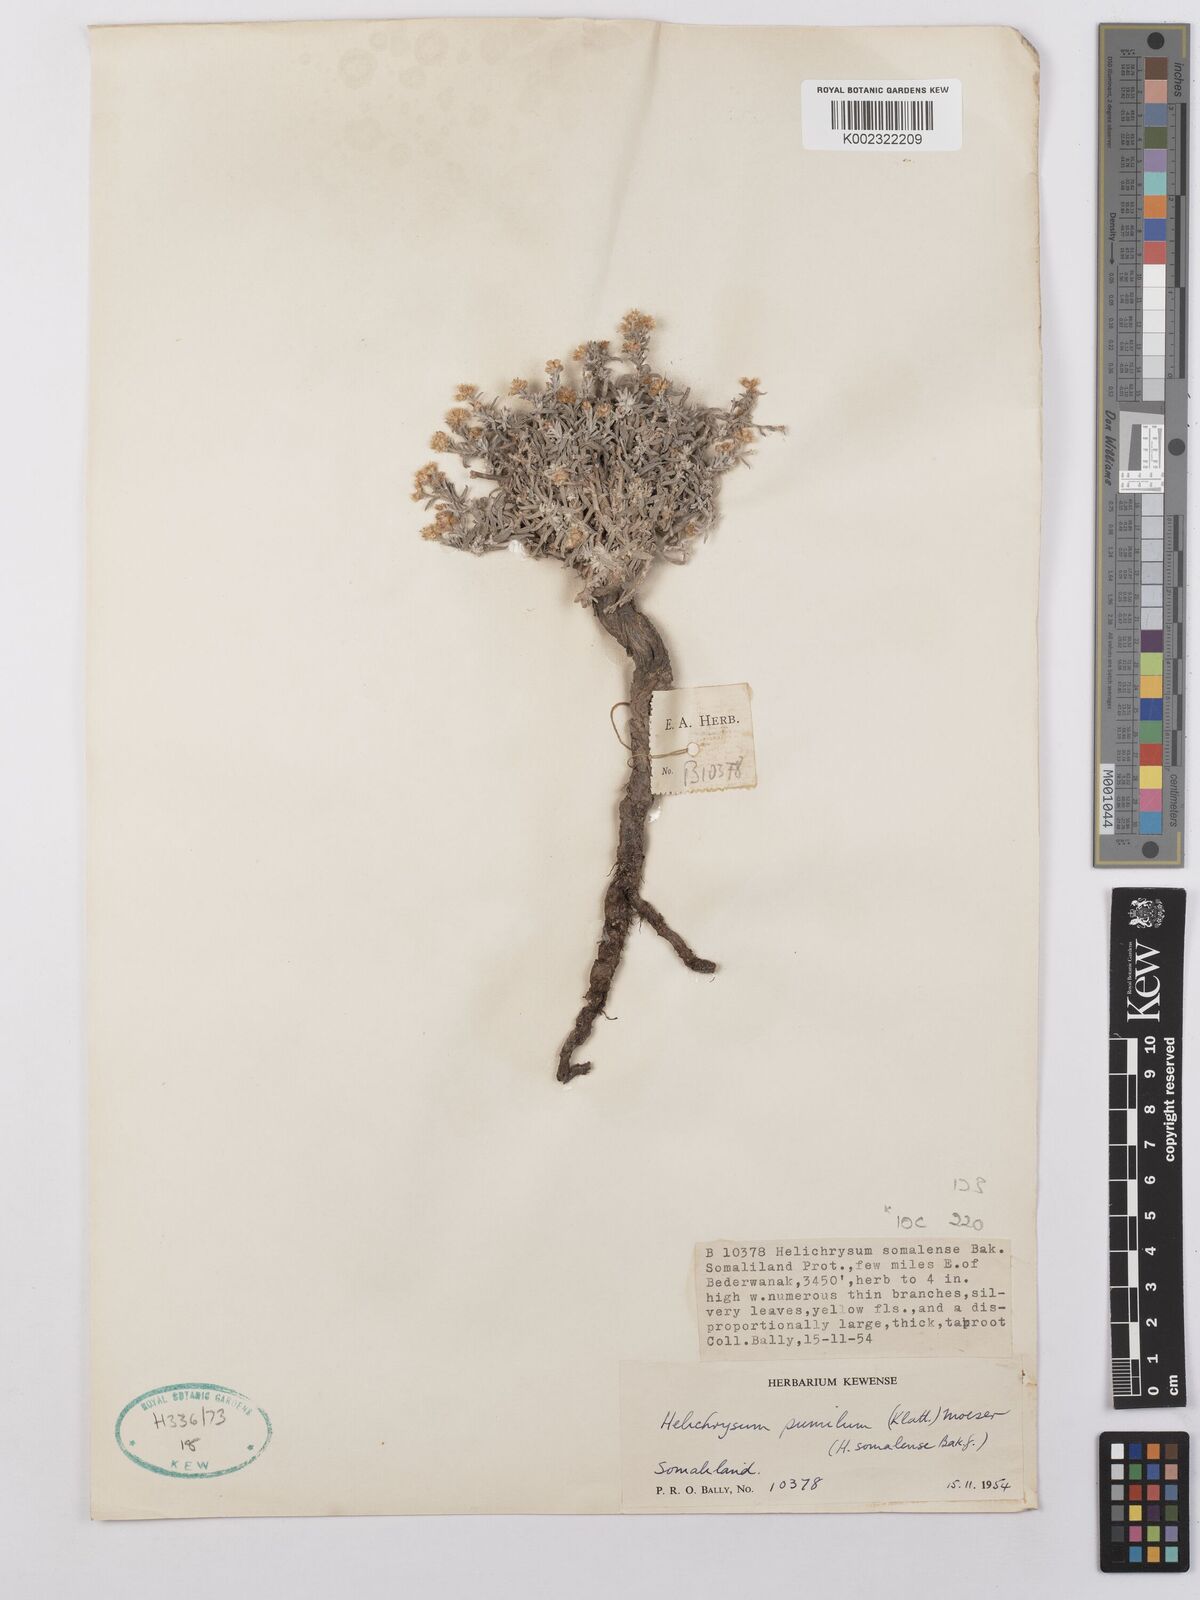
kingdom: Plantae
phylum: Tracheophyta
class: Magnoliopsida
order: Asterales
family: Asteraceae
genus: Helichrysum
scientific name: Helichrysum somalense
